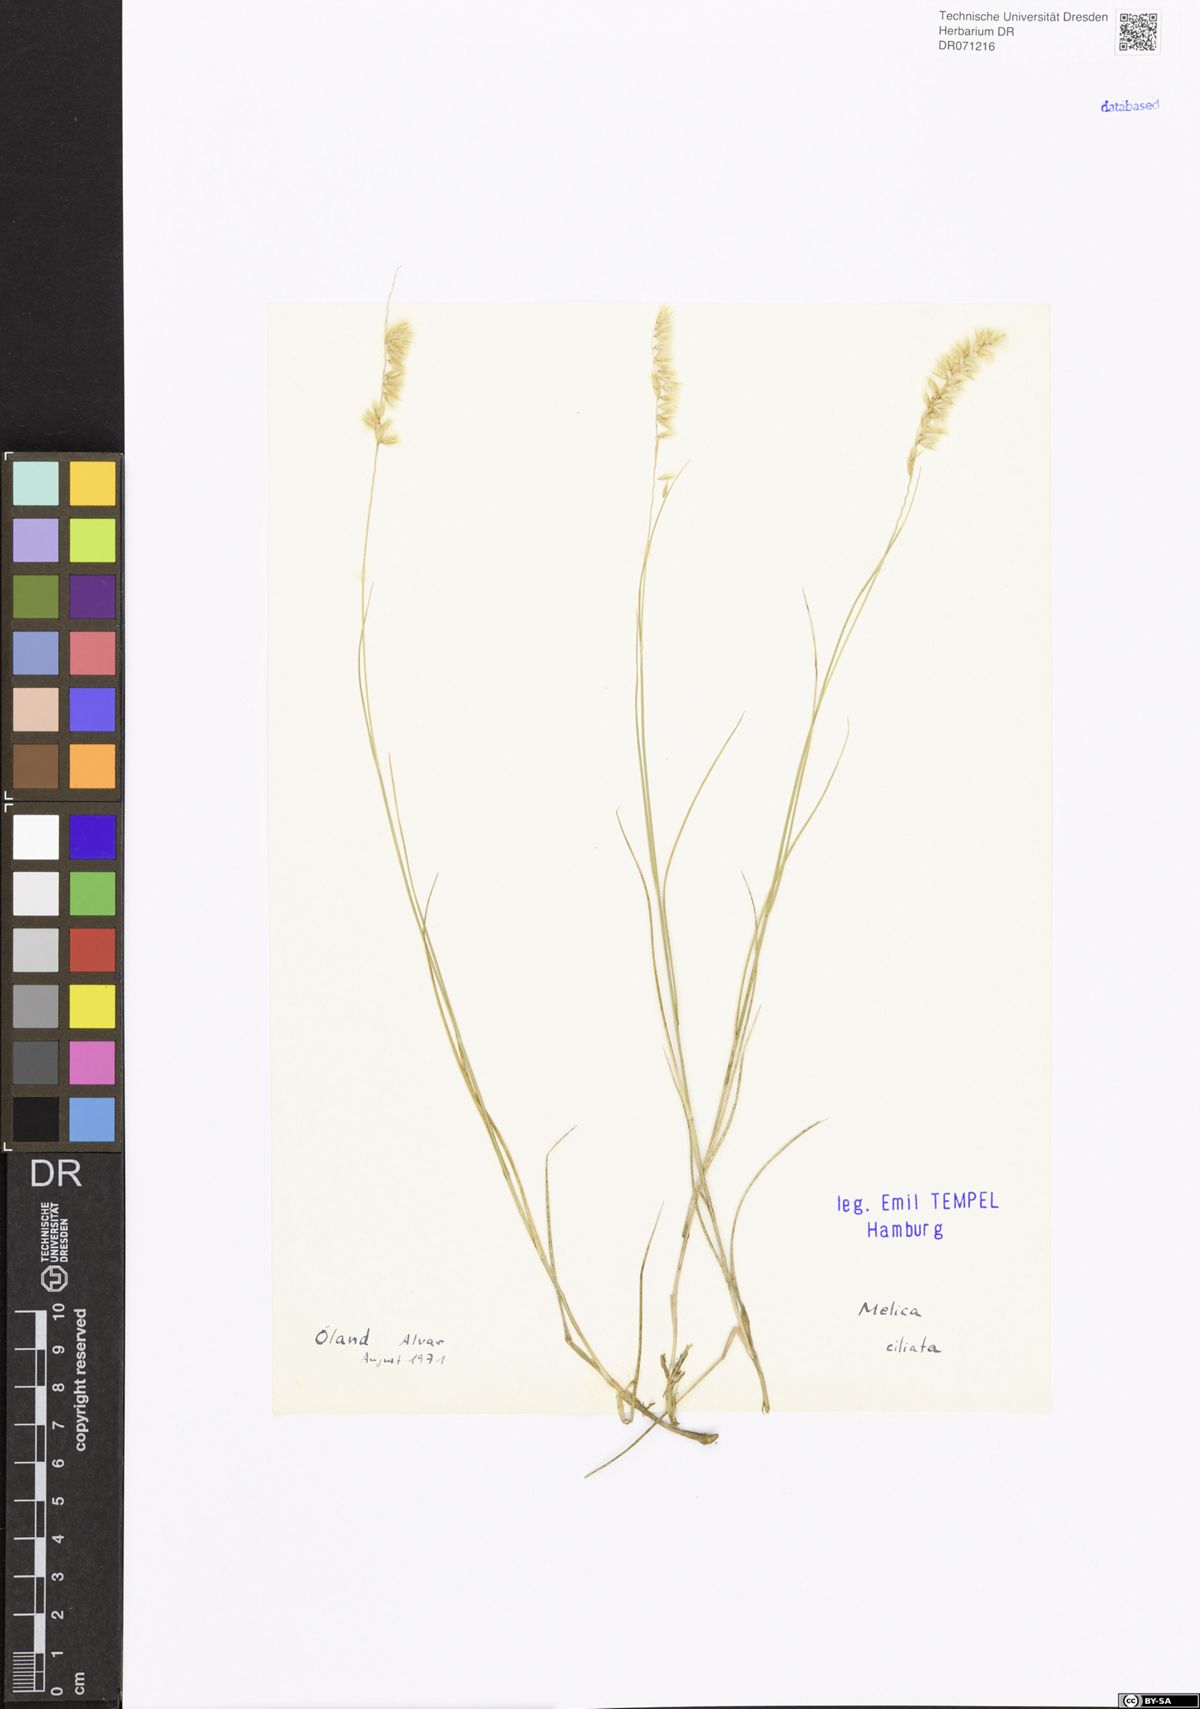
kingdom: Plantae
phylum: Tracheophyta
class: Liliopsida
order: Poales
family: Poaceae
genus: Melica
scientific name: Melica ciliata
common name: Hairy melicgrass
